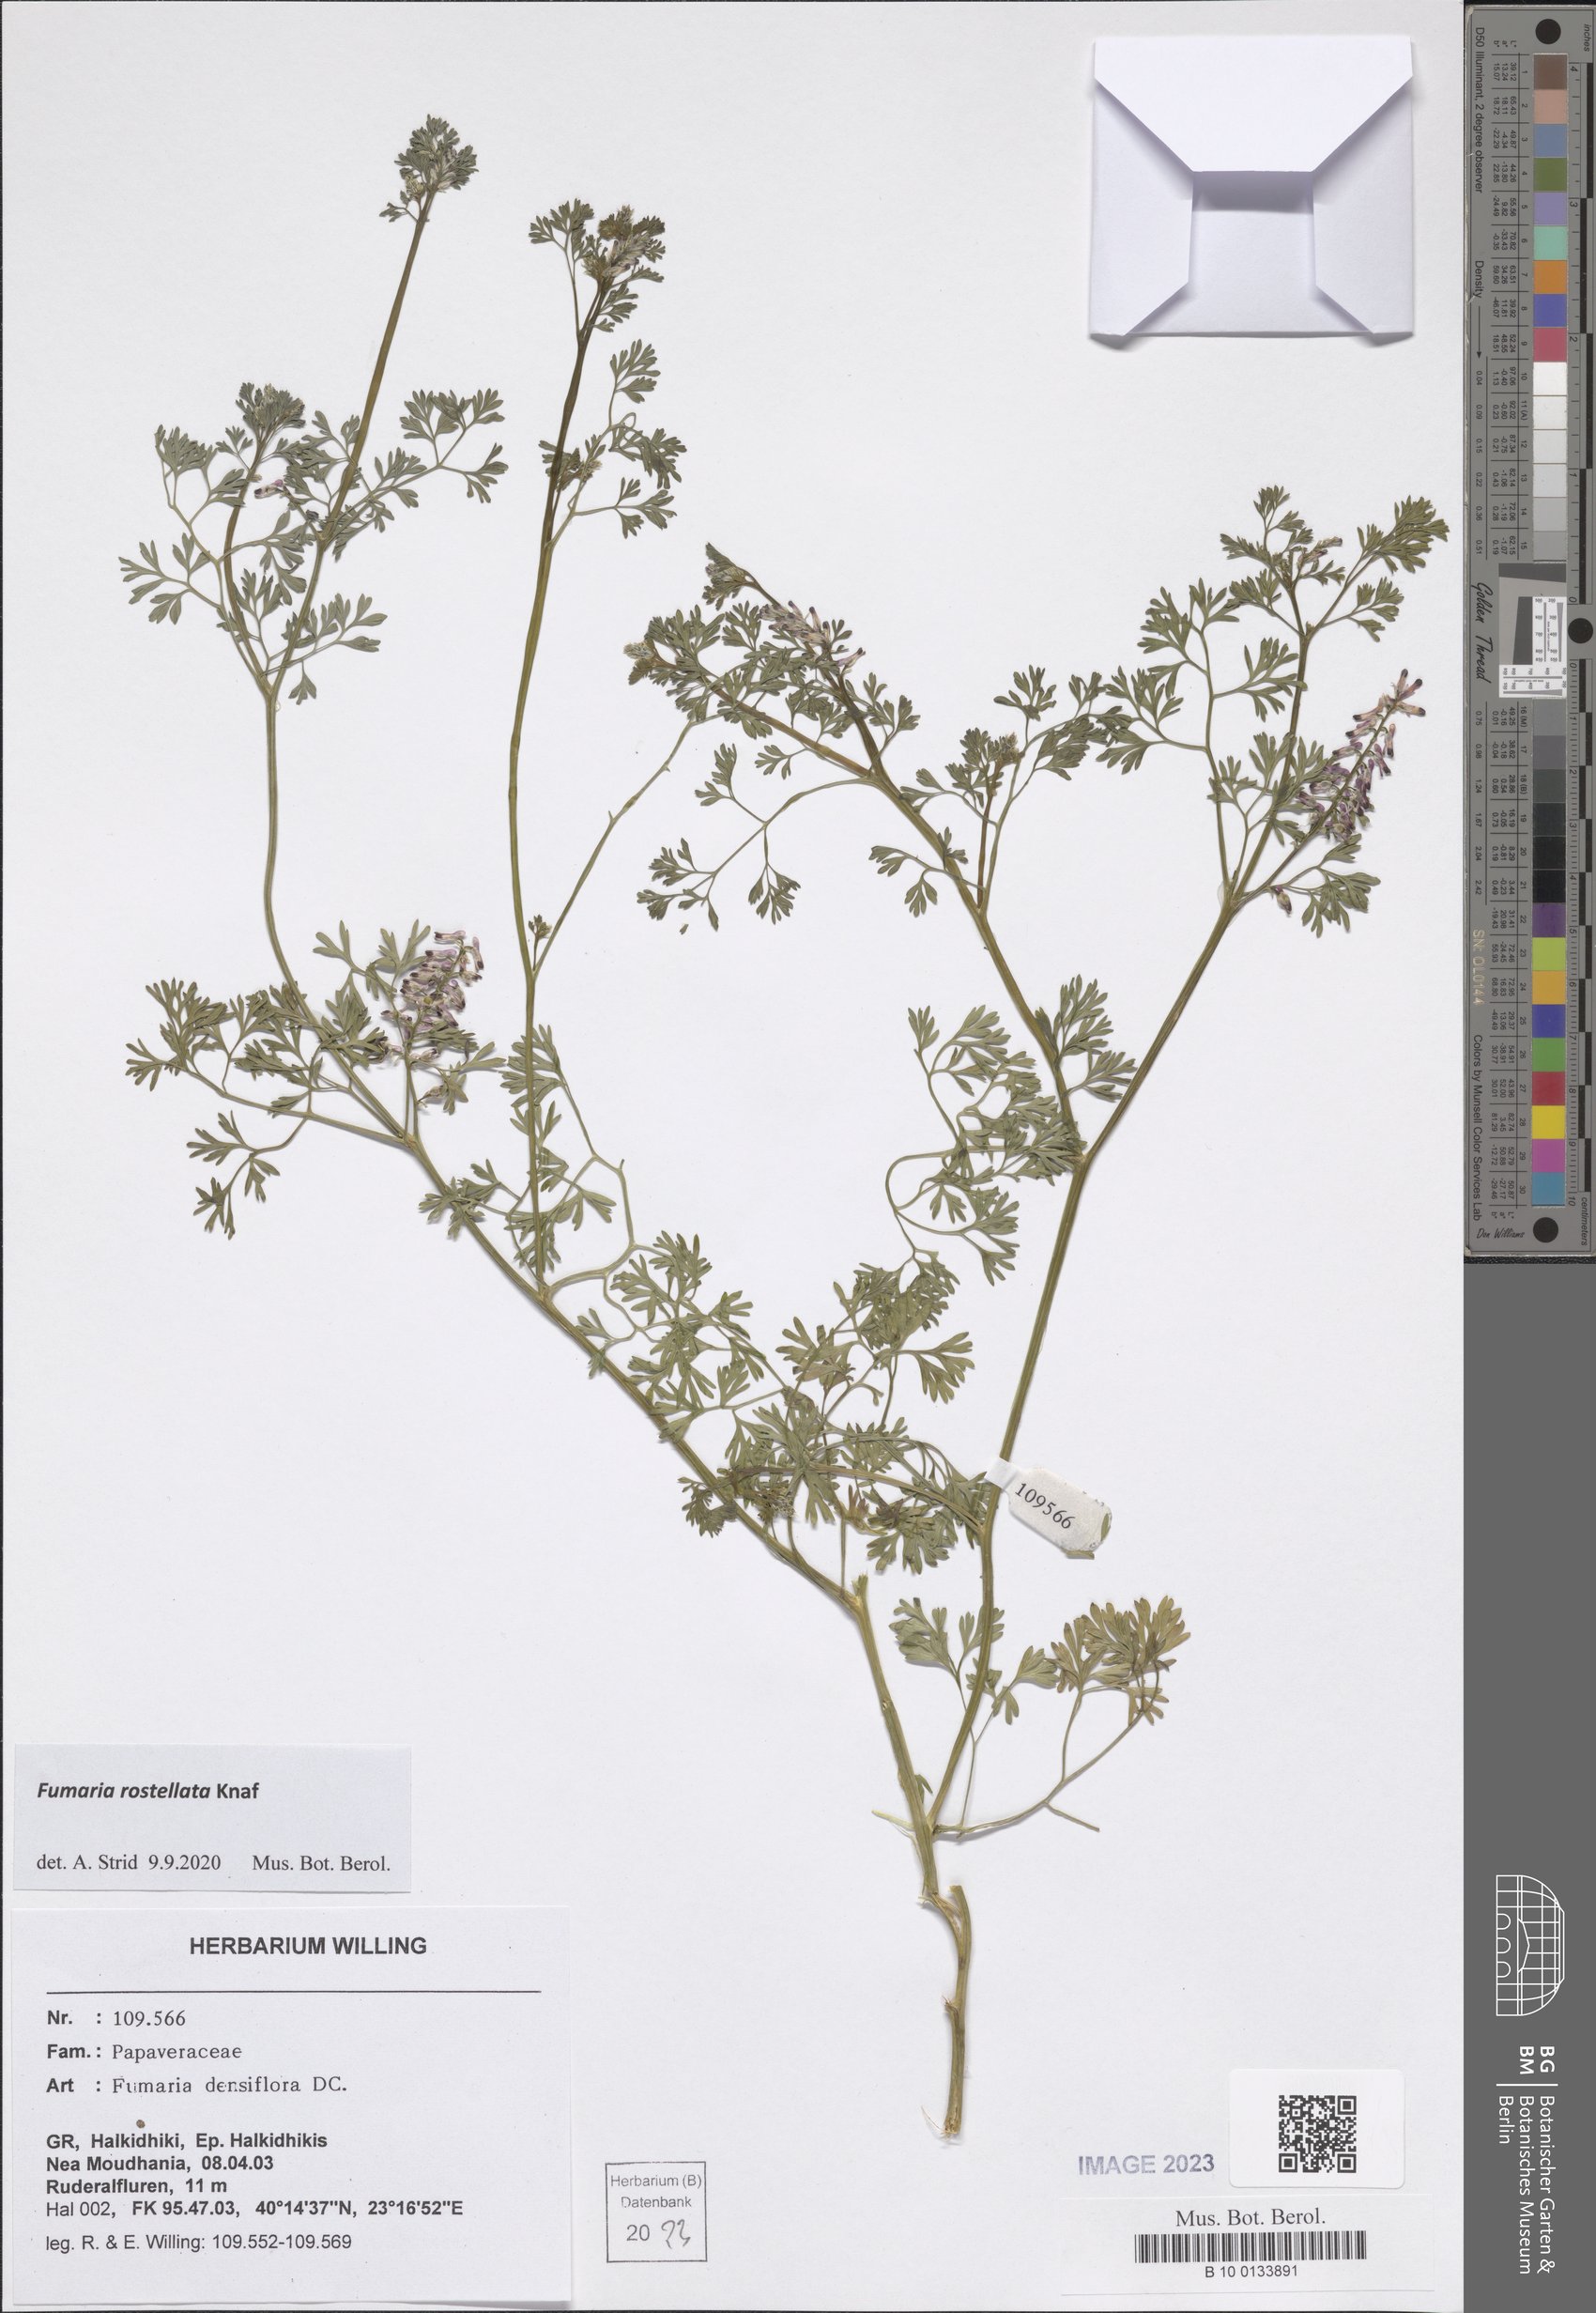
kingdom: Plantae
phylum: Tracheophyta
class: Magnoliopsida
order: Ranunculales
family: Papaveraceae
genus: Fumaria
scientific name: Fumaria rostellata
